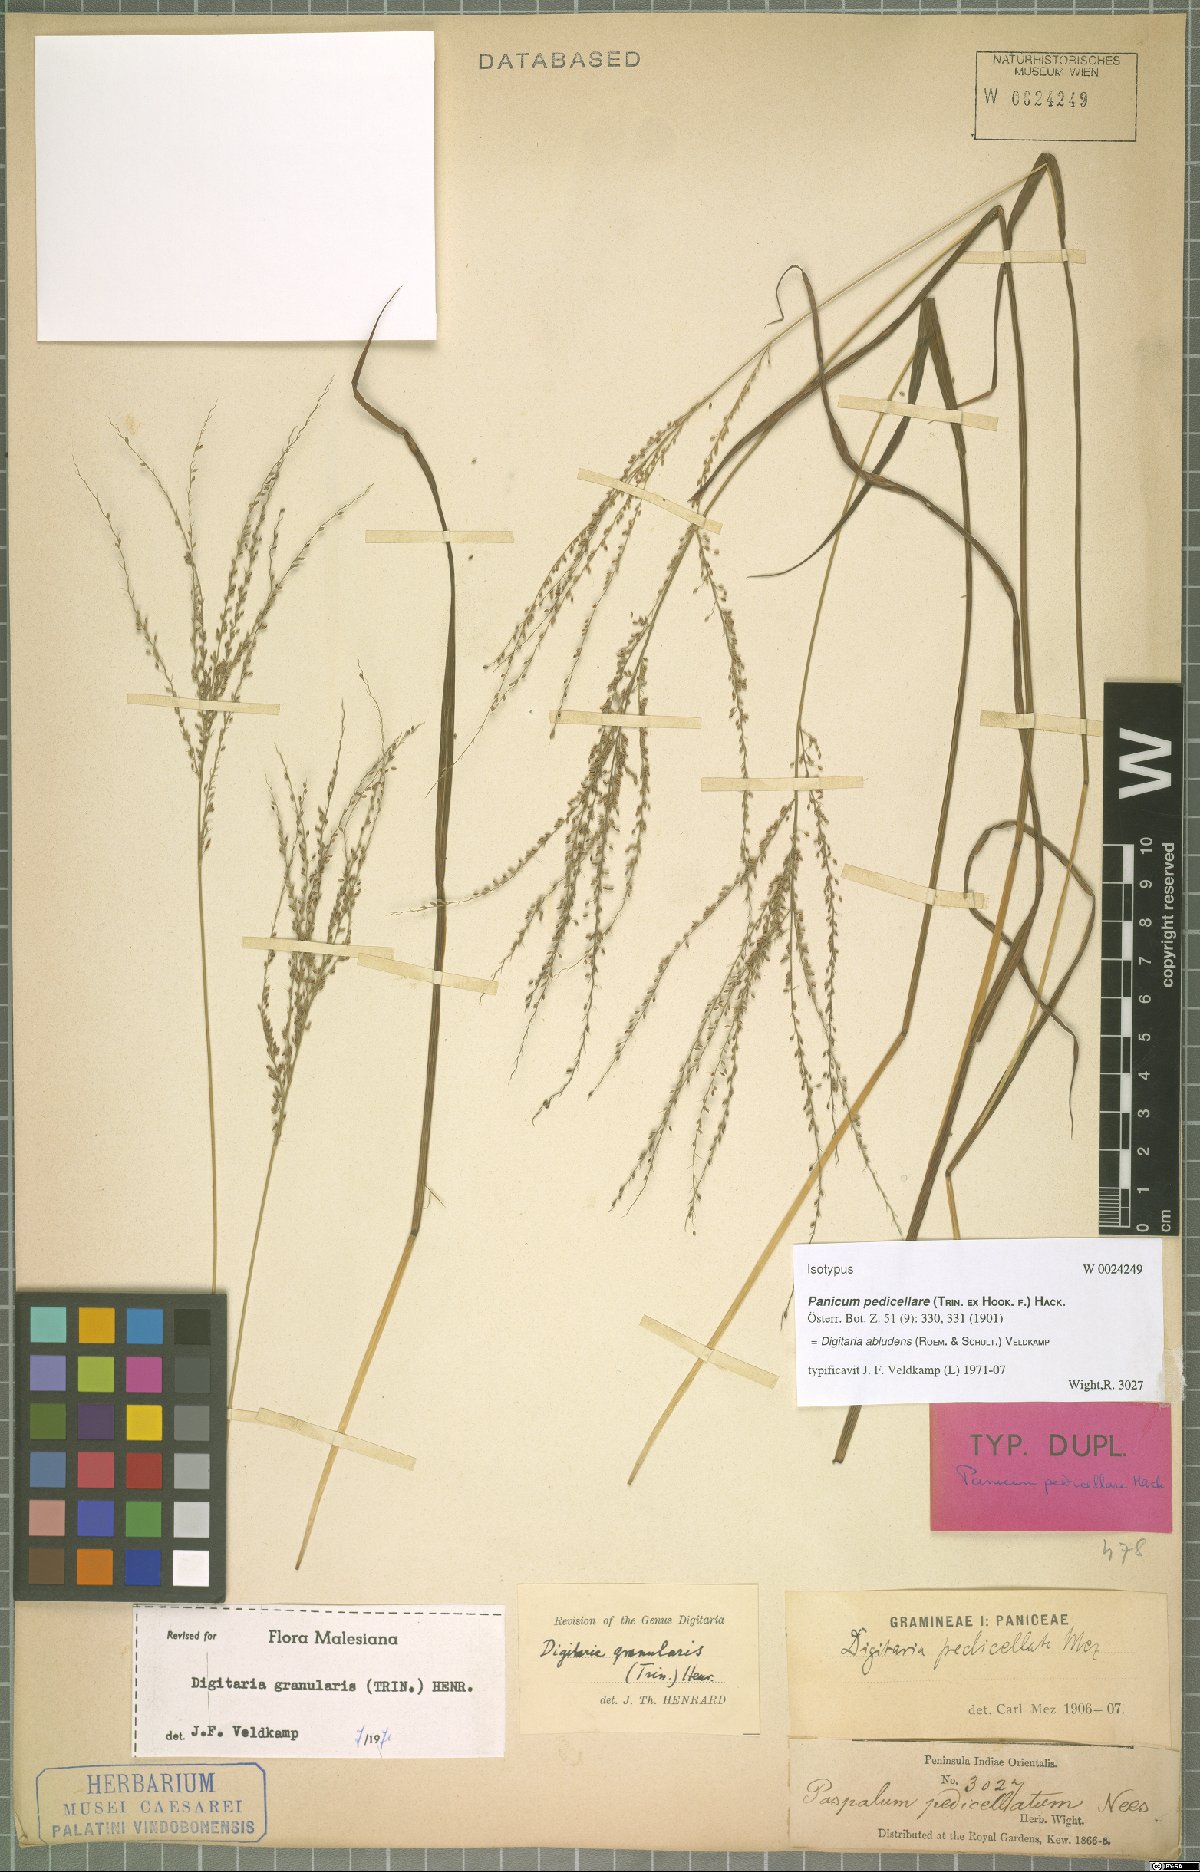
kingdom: Plantae
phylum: Tracheophyta
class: Liliopsida
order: Poales
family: Poaceae
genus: Digitaria
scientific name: Digitaria abludens
